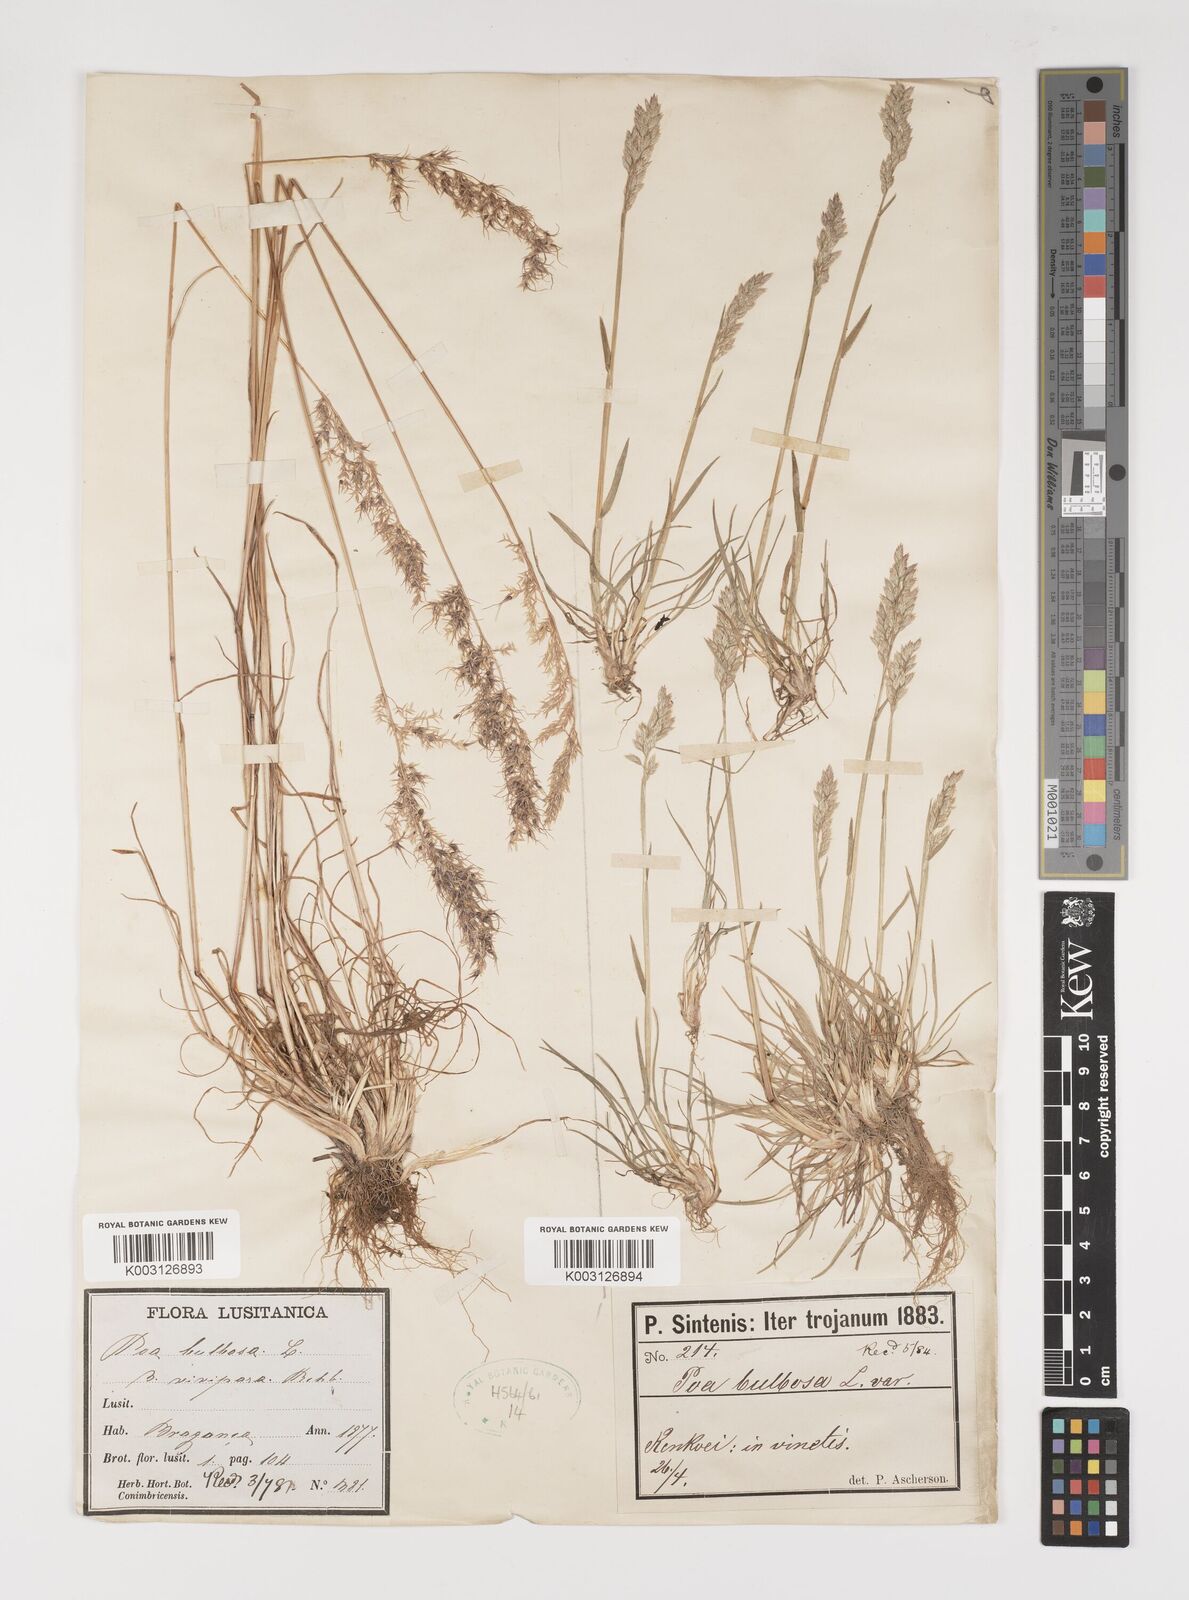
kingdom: Plantae
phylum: Tracheophyta
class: Liliopsida
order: Poales
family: Poaceae
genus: Poa
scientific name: Poa bulbosa
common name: Bulbous bluegrass
